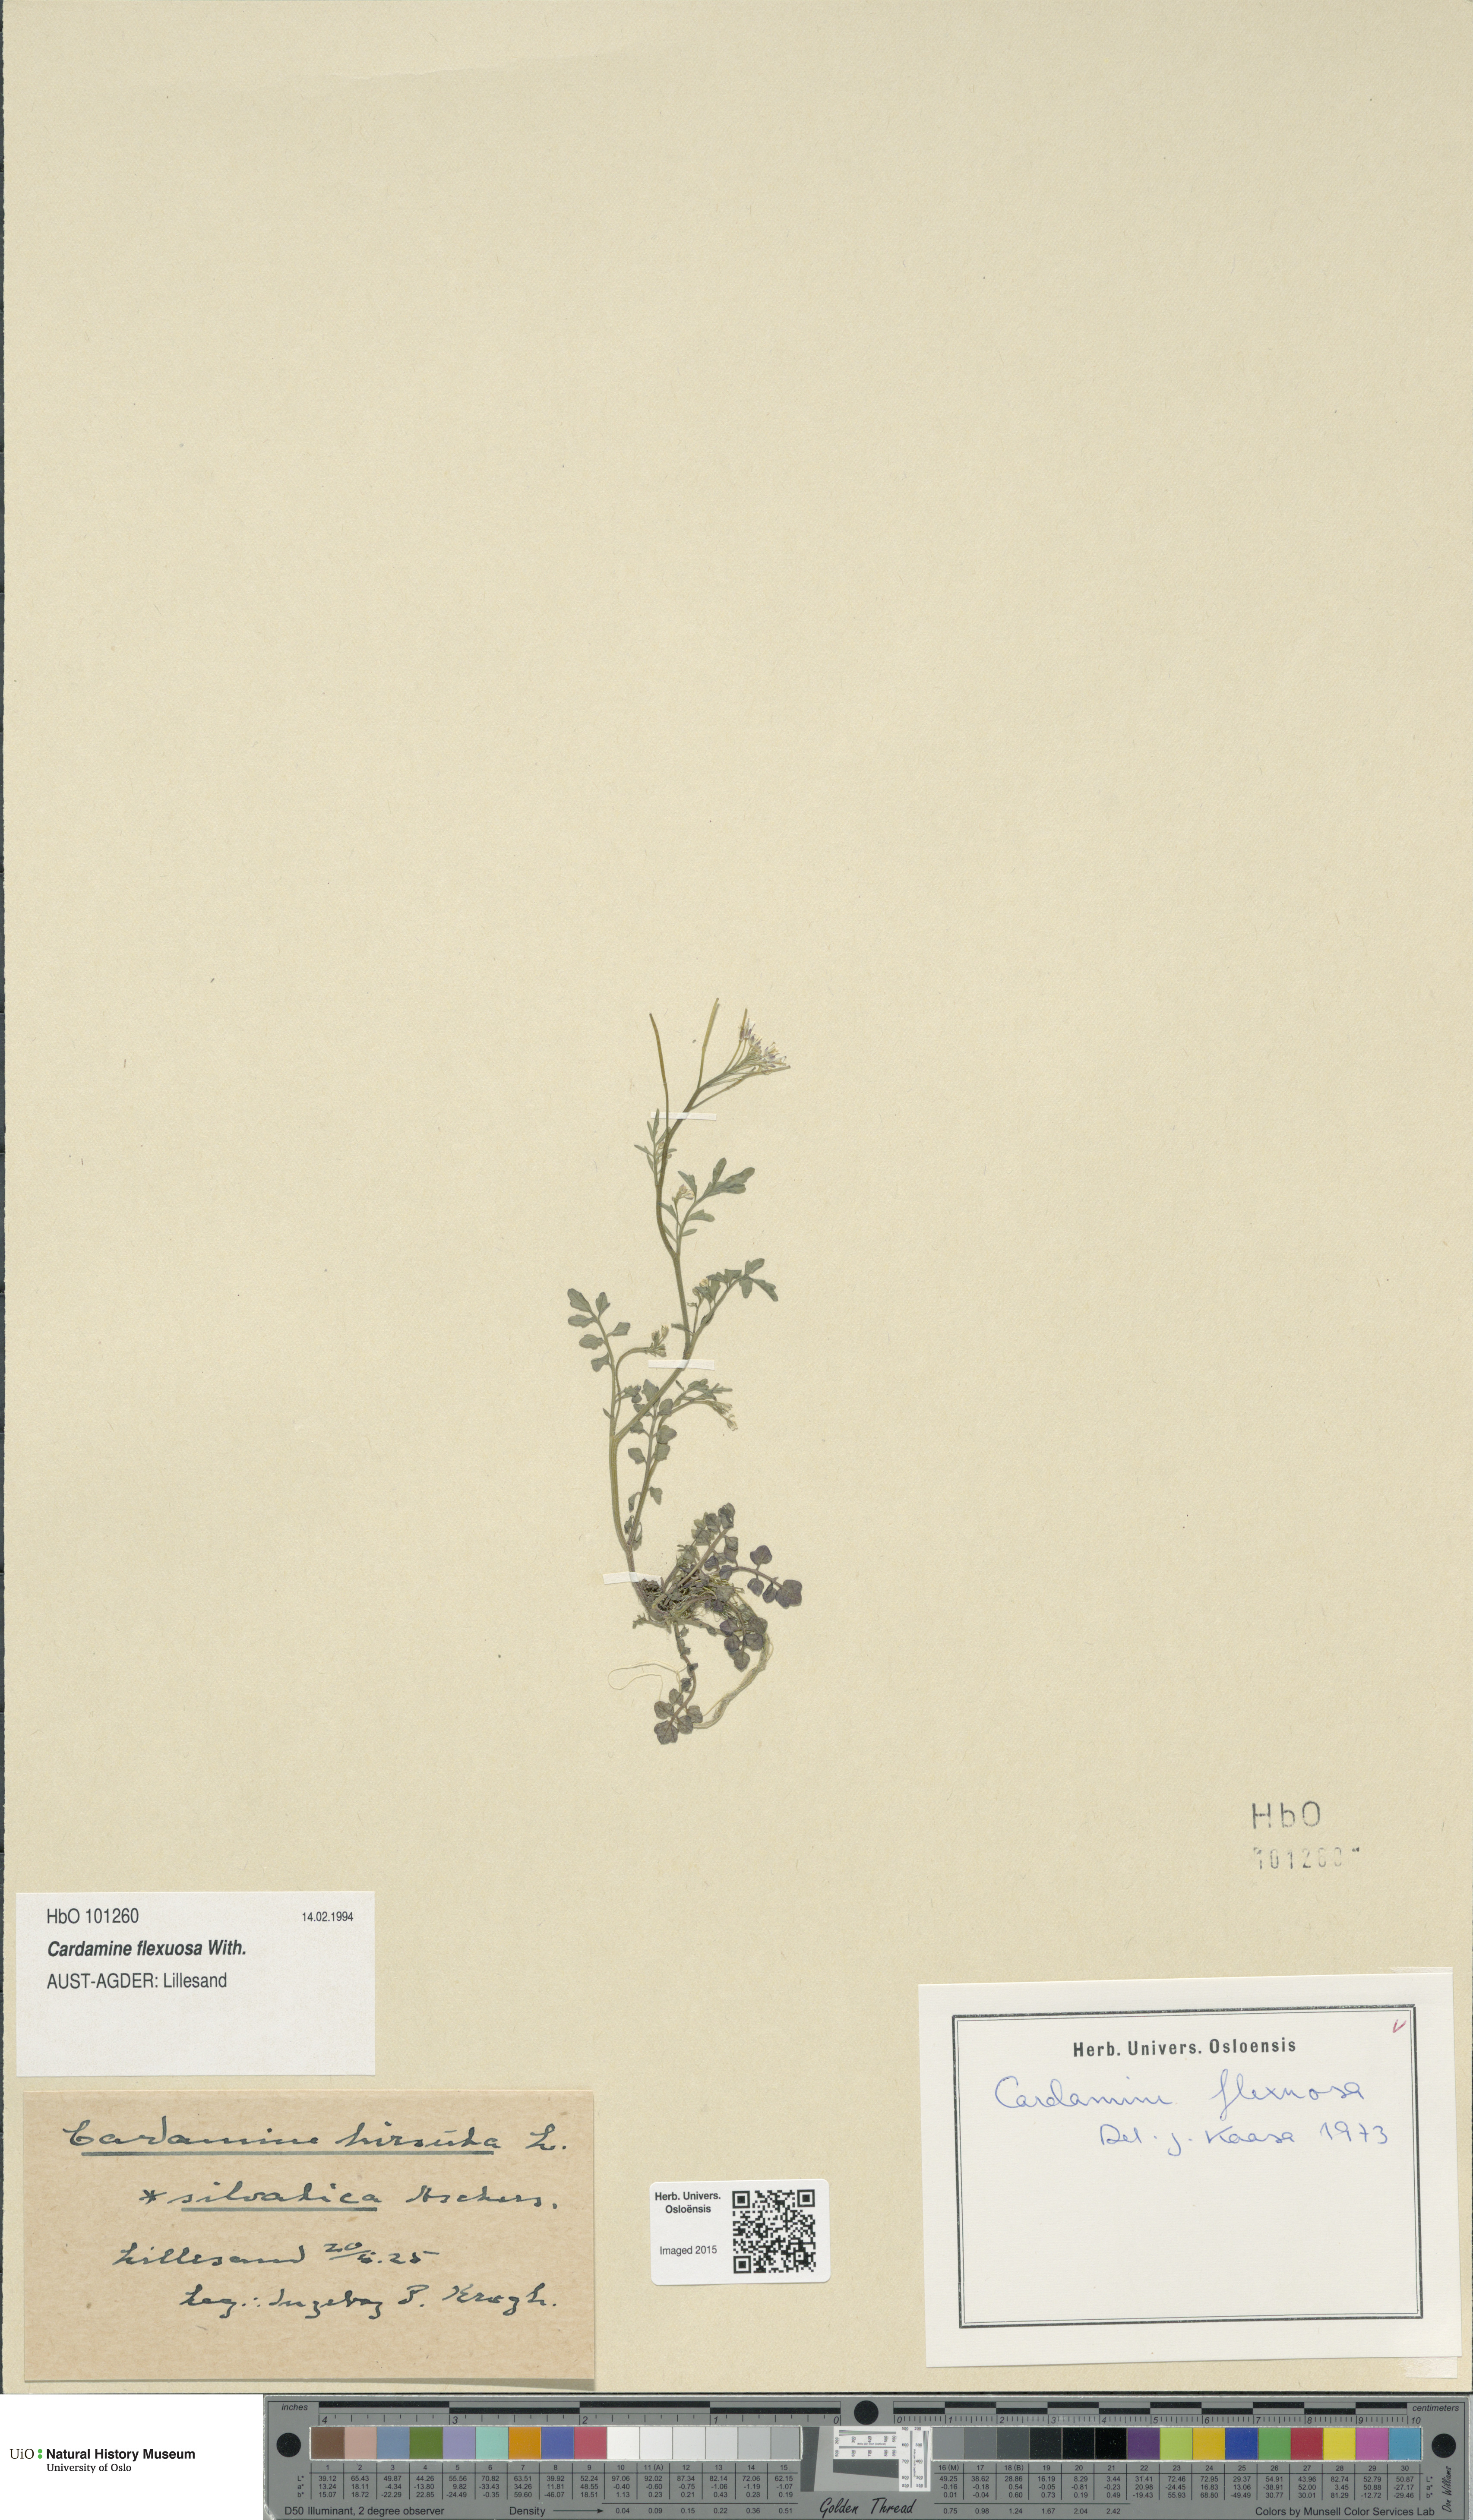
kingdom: Plantae
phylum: Tracheophyta
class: Magnoliopsida
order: Brassicales
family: Brassicaceae
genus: Cardamine
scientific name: Cardamine flexuosa
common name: Woodland bittercress
